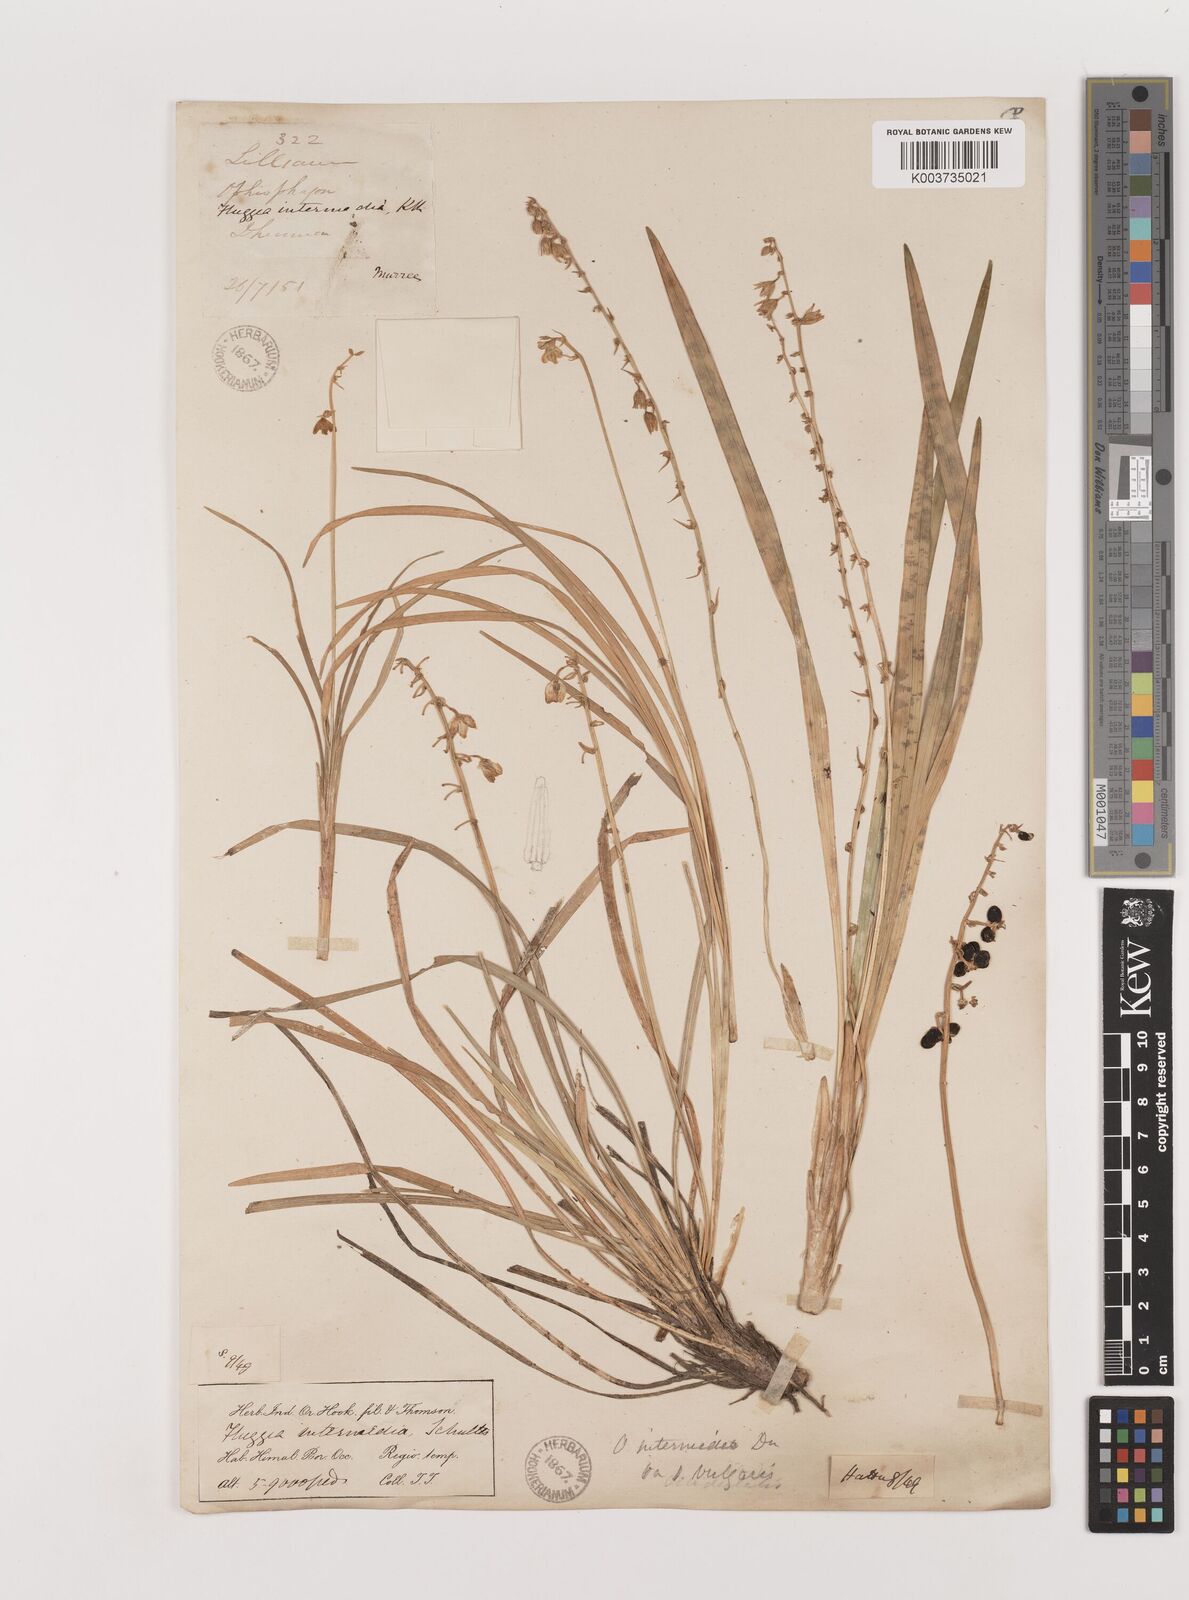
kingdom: Plantae
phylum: Tracheophyta
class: Liliopsida
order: Asparagales
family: Asparagaceae
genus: Ophiopogon
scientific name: Ophiopogon intermedius
